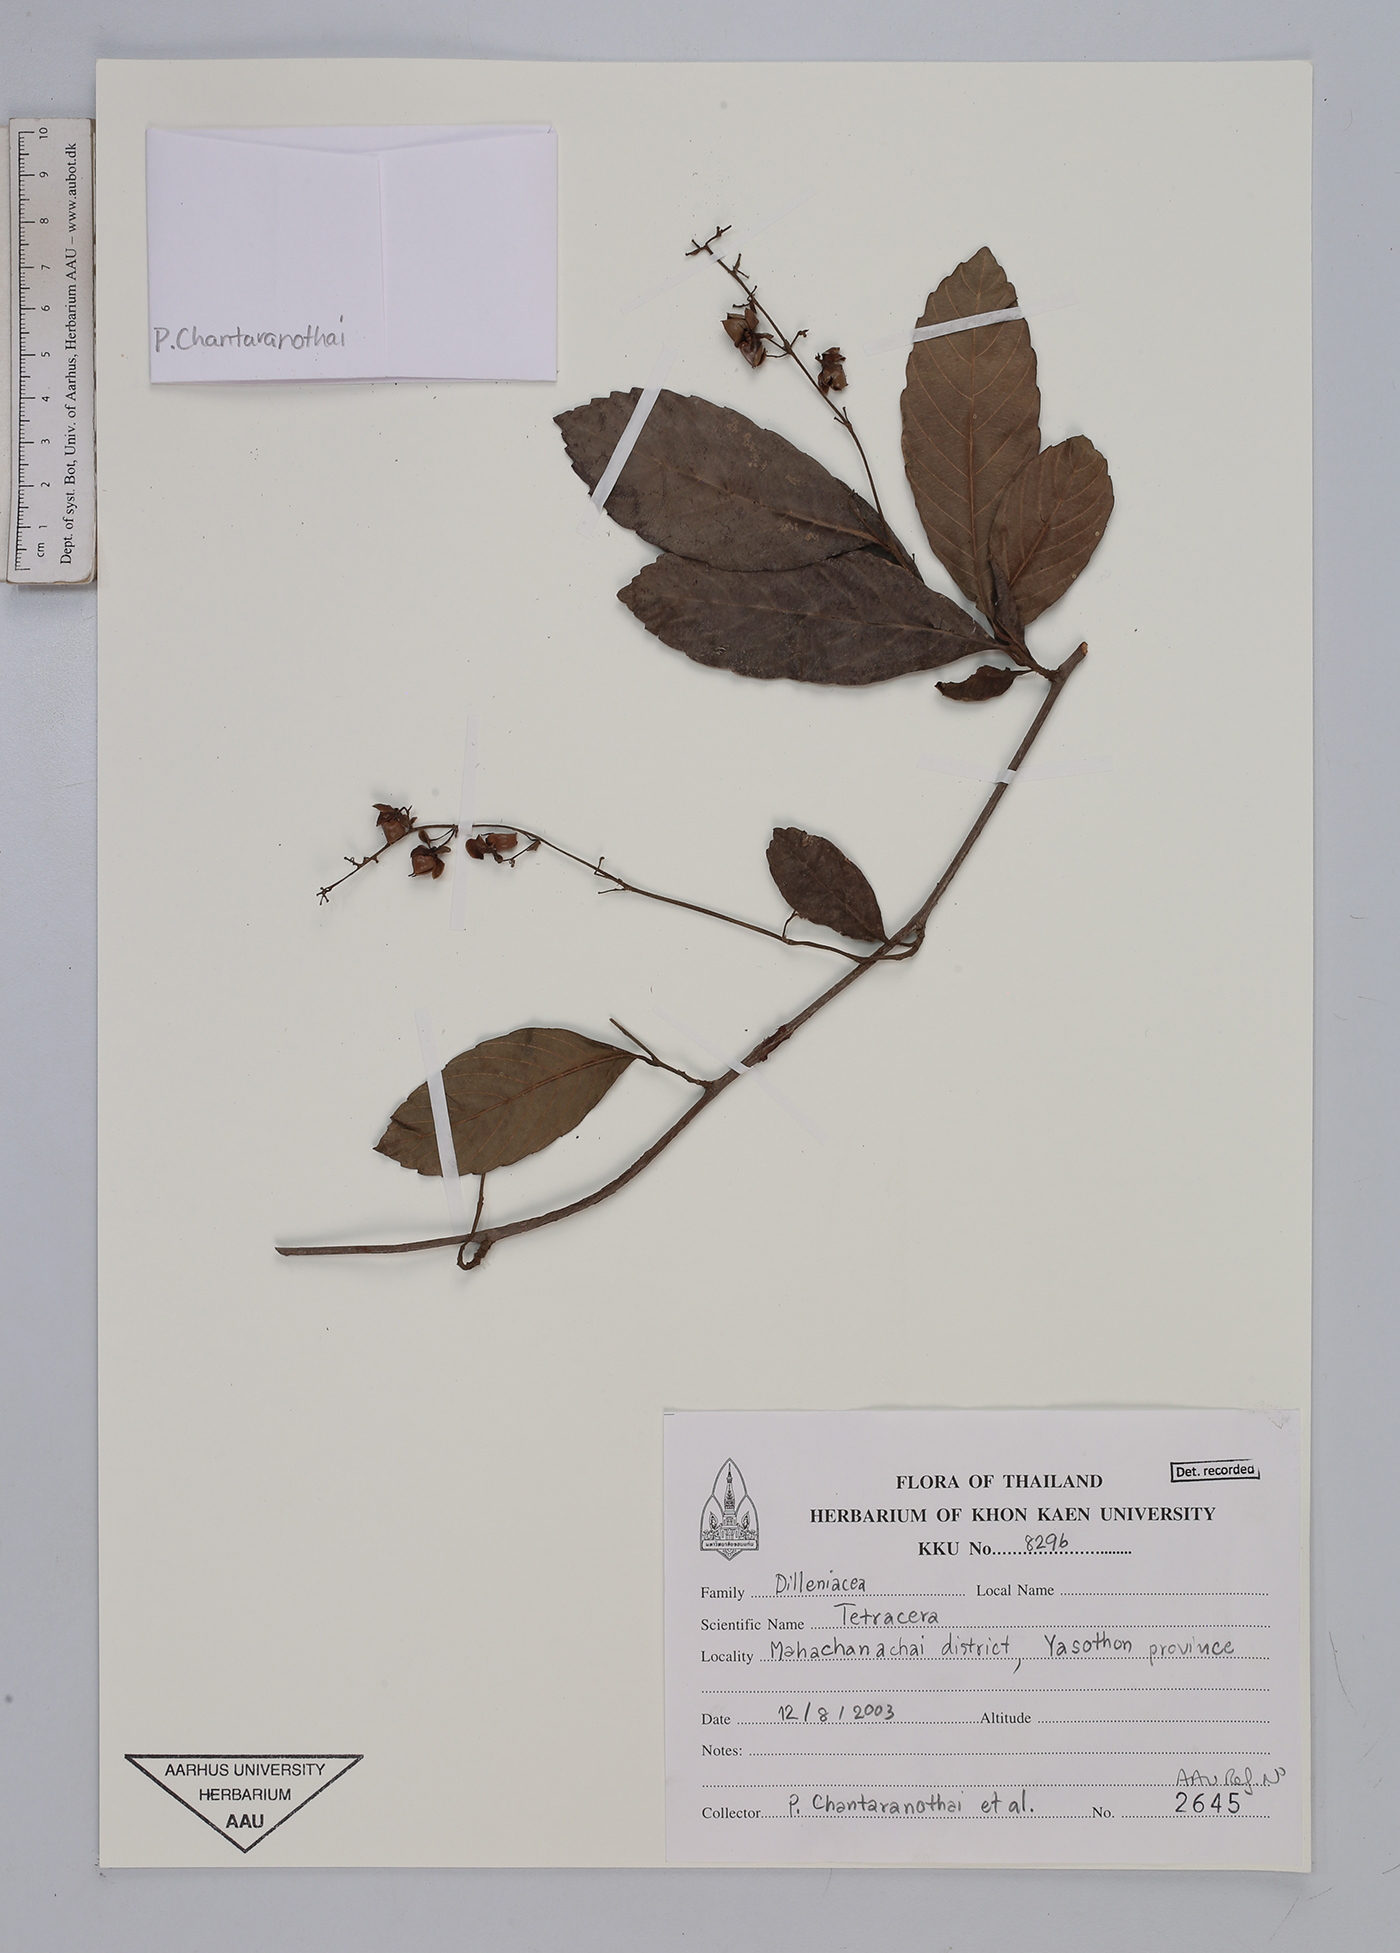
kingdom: Plantae
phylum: Tracheophyta
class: Magnoliopsida
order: Dilleniales
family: Dilleniaceae
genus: Tetracera
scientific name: Tetracera
